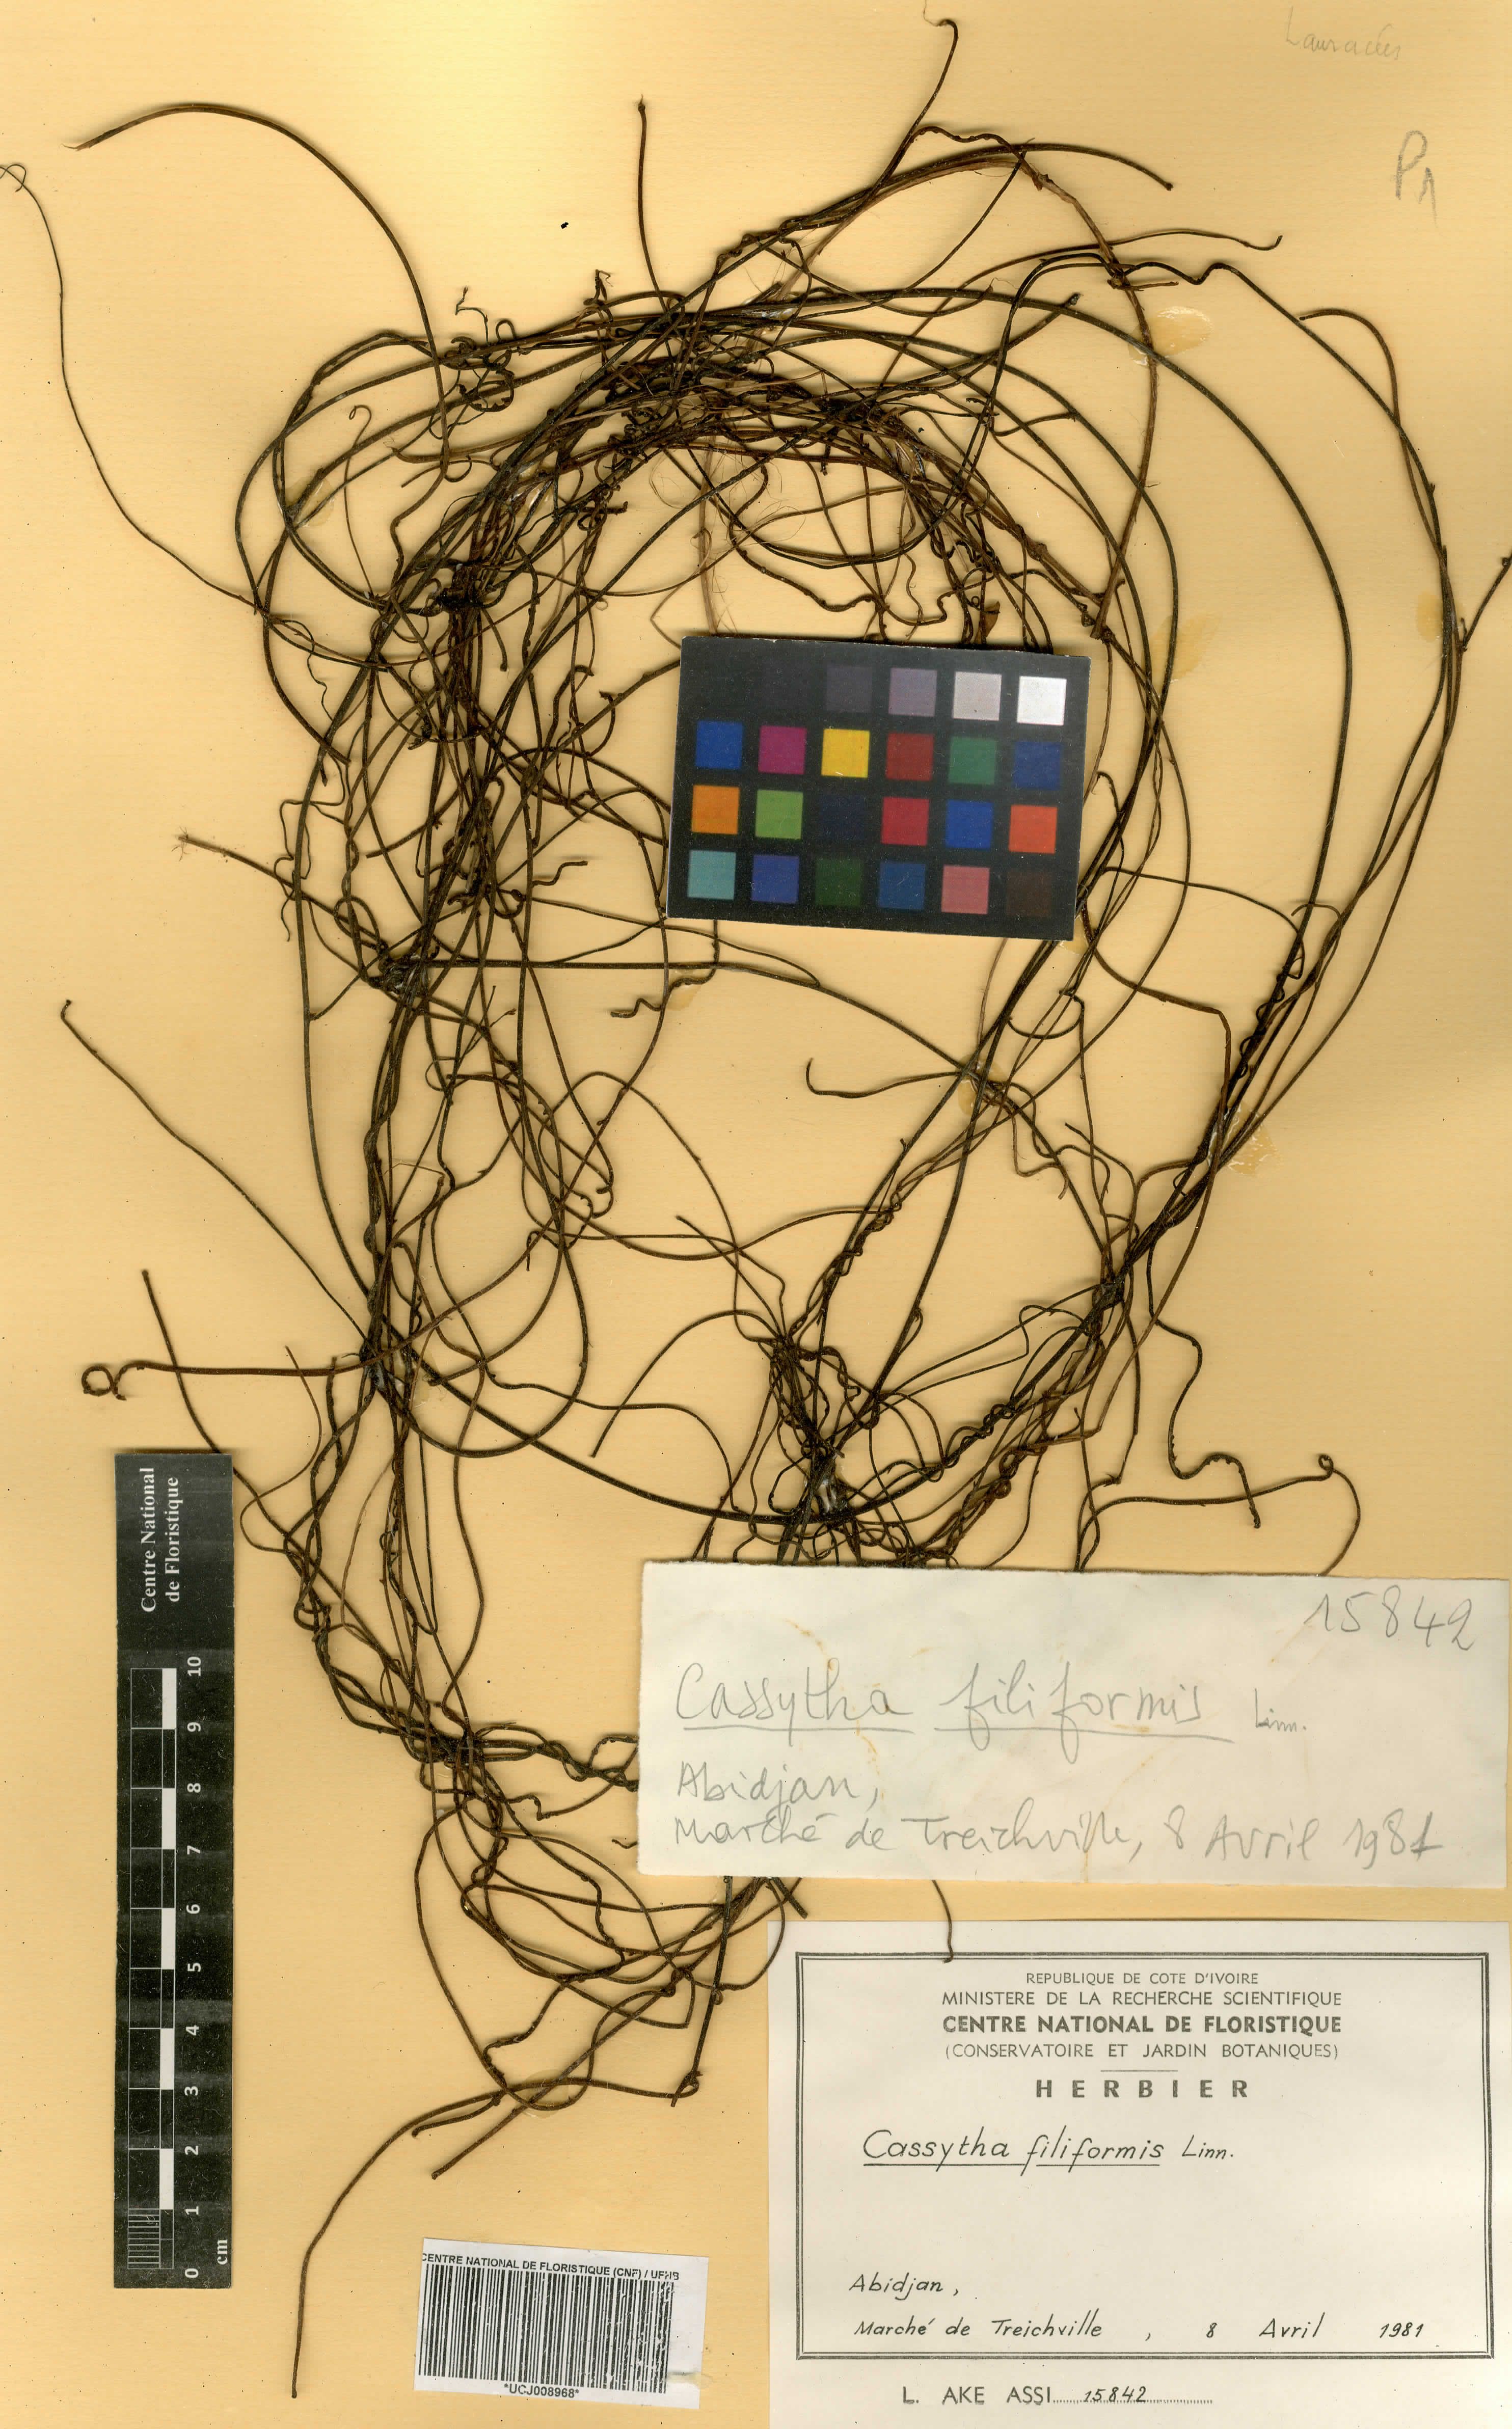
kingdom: Plantae
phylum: Tracheophyta
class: Magnoliopsida
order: Laurales
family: Lauraceae
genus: Cassytha
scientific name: Cassytha filiformis
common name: Dodder-laurel
